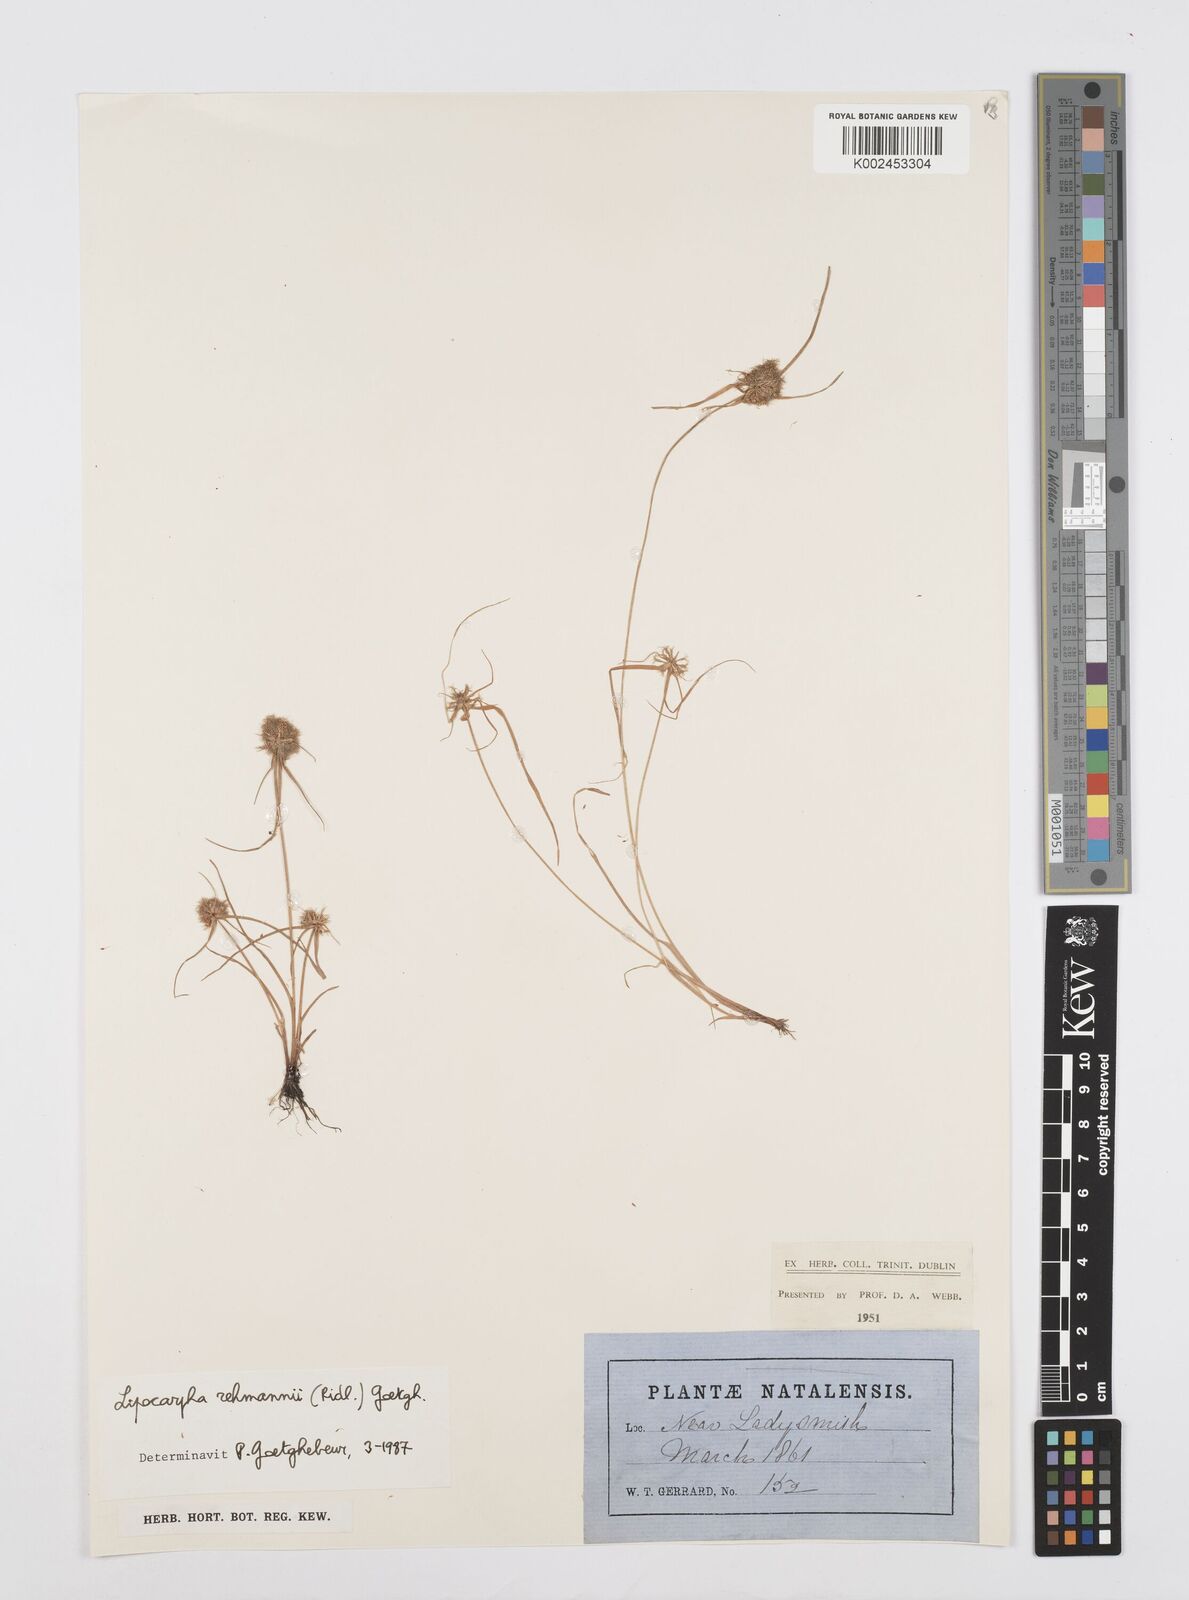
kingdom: Plantae
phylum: Tracheophyta
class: Liliopsida
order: Poales
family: Cyperaceae
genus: Cyperus
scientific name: Cyperus sanguinolentus
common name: Purpleglume flatsedge
